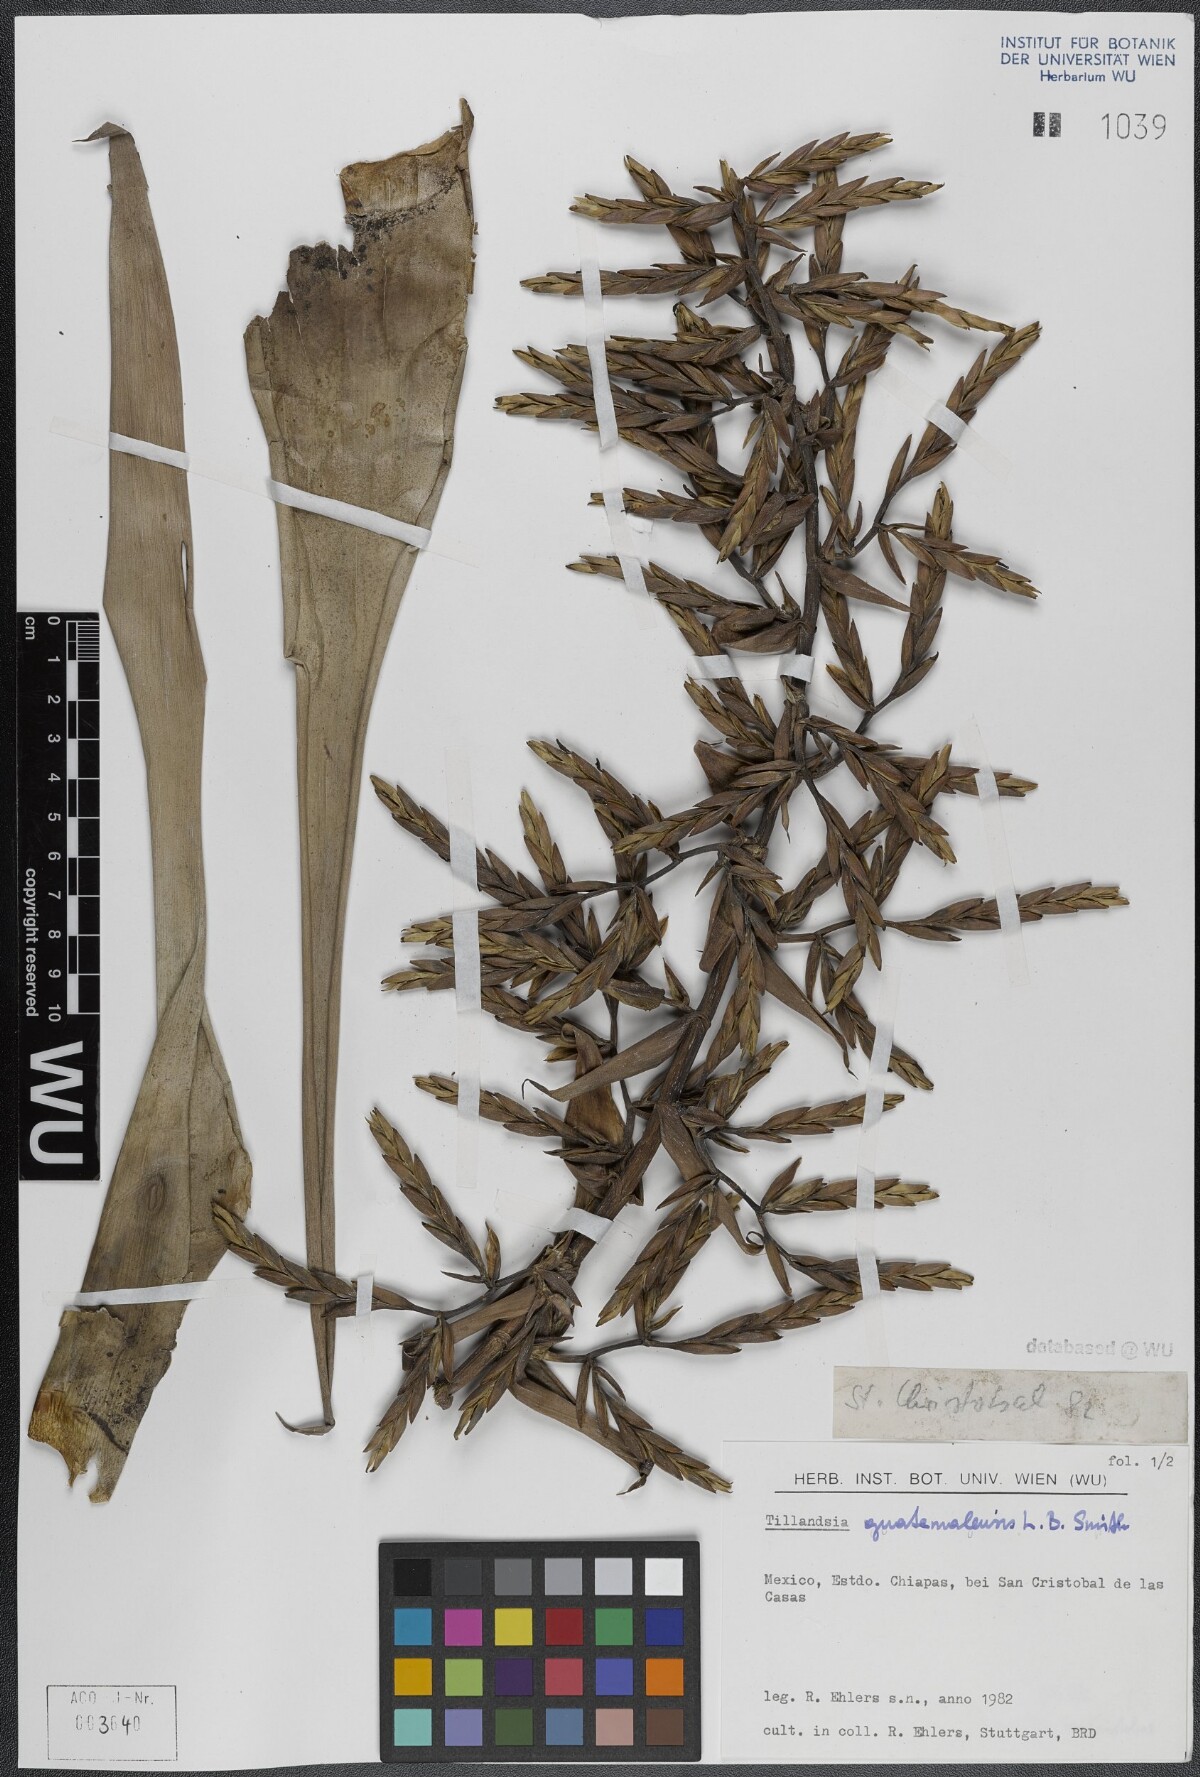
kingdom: Plantae
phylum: Tracheophyta
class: Liliopsida
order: Poales
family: Bromeliaceae
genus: Tillandsia
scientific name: Tillandsia guatemalensis
